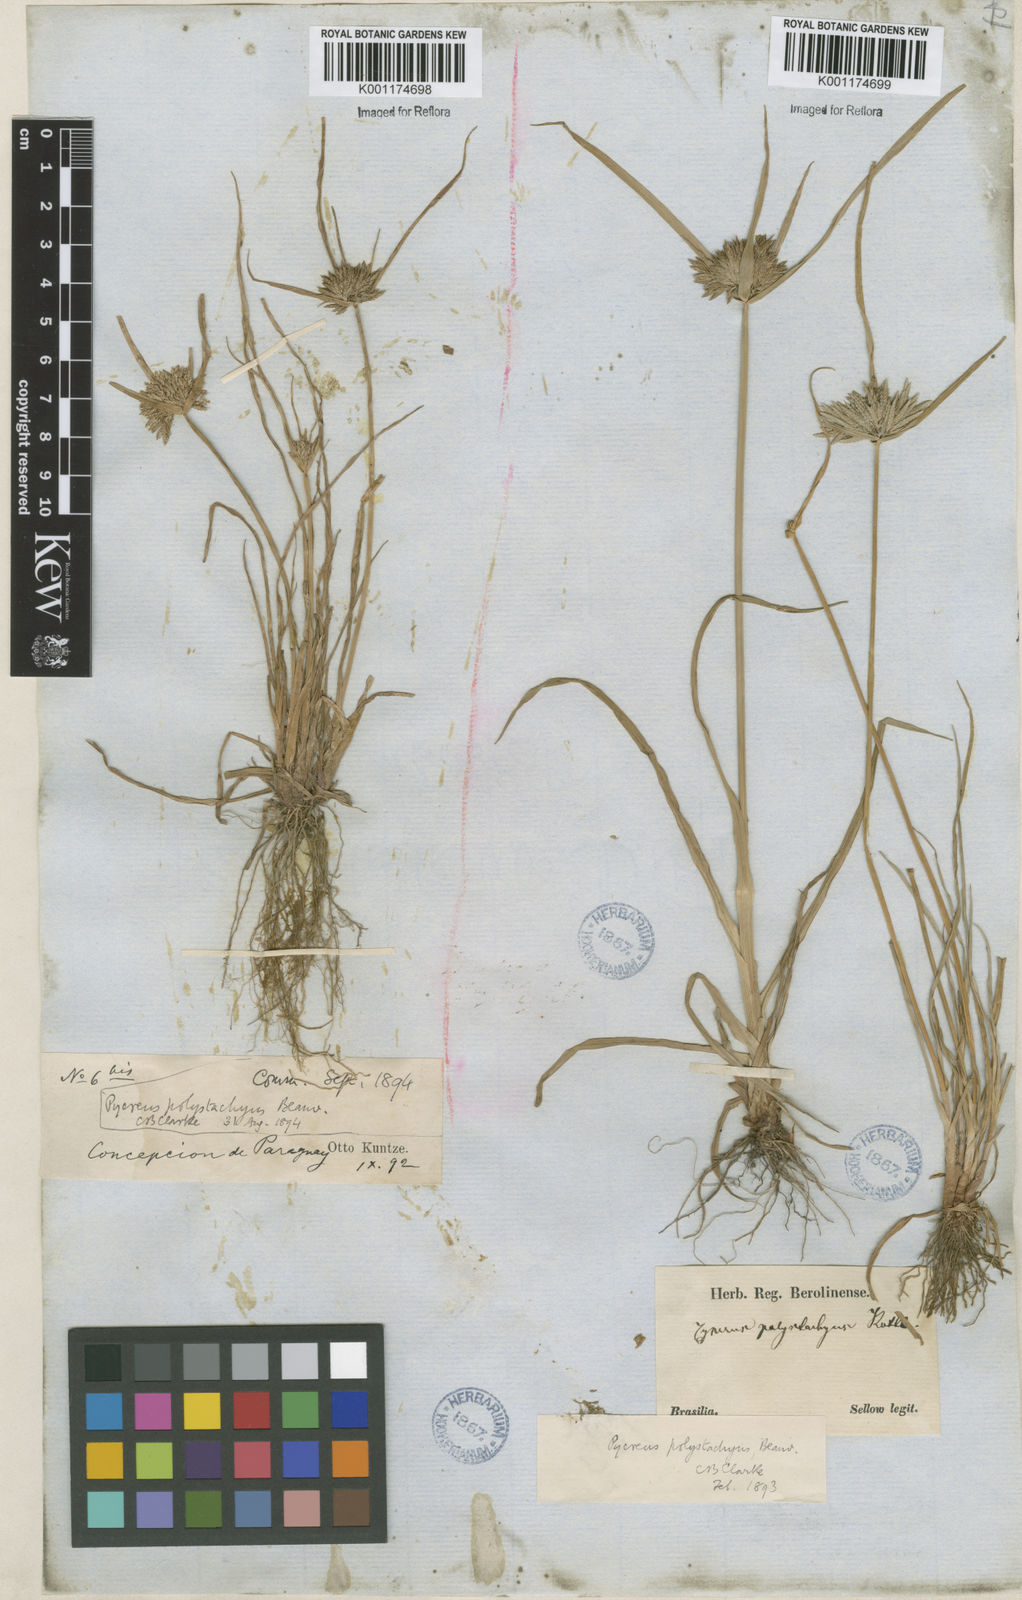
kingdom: Plantae
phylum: Tracheophyta
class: Liliopsida
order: Poales
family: Cyperaceae
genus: Cyperus
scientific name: Cyperus polystachyos
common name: Bunchy flat sedge
